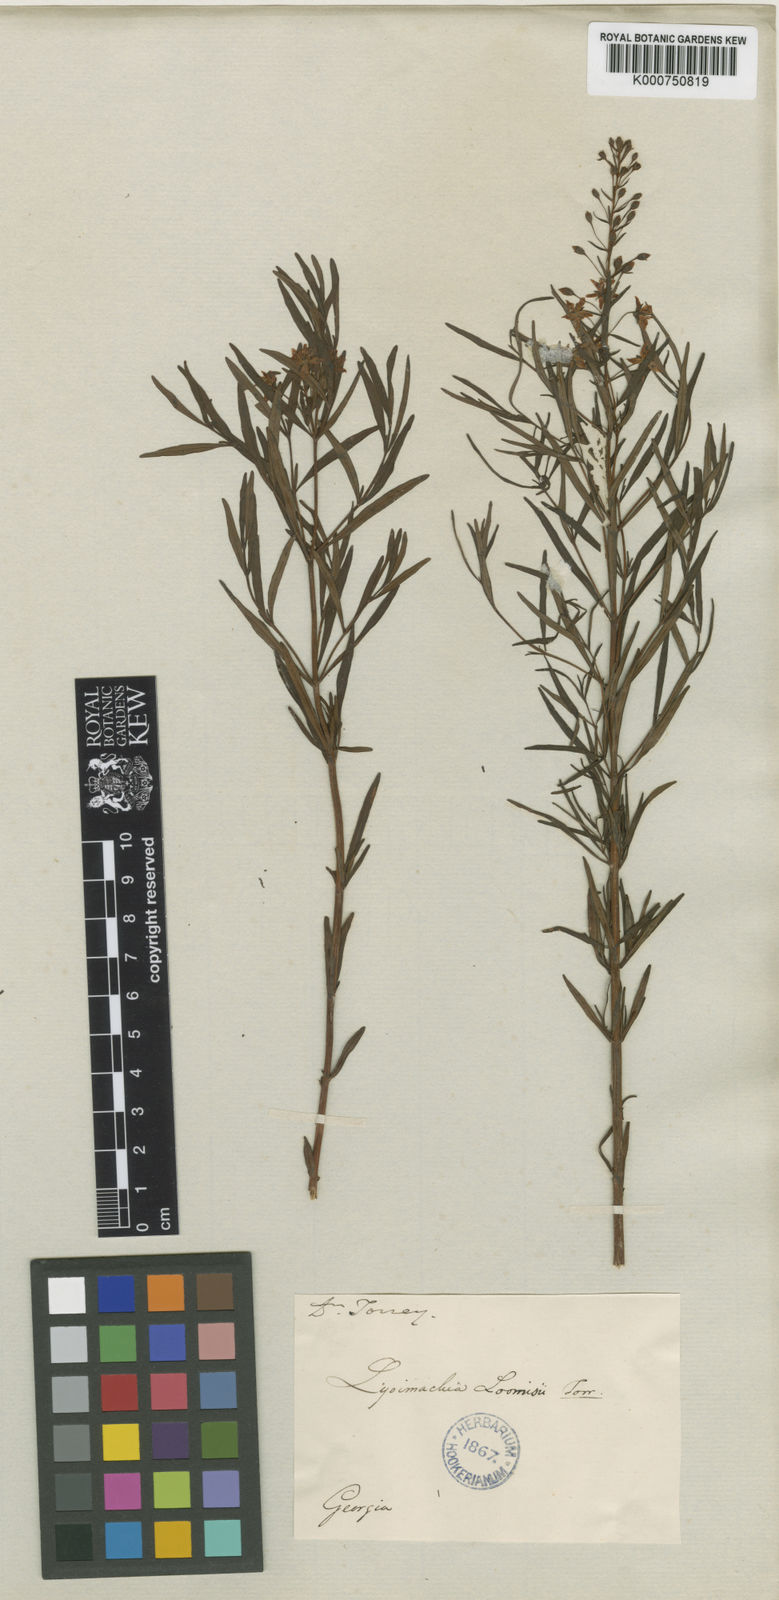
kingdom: Plantae
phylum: Tracheophyta
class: Magnoliopsida
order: Ericales
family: Primulaceae
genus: Lysimachia
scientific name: Lysimachia loomisii
